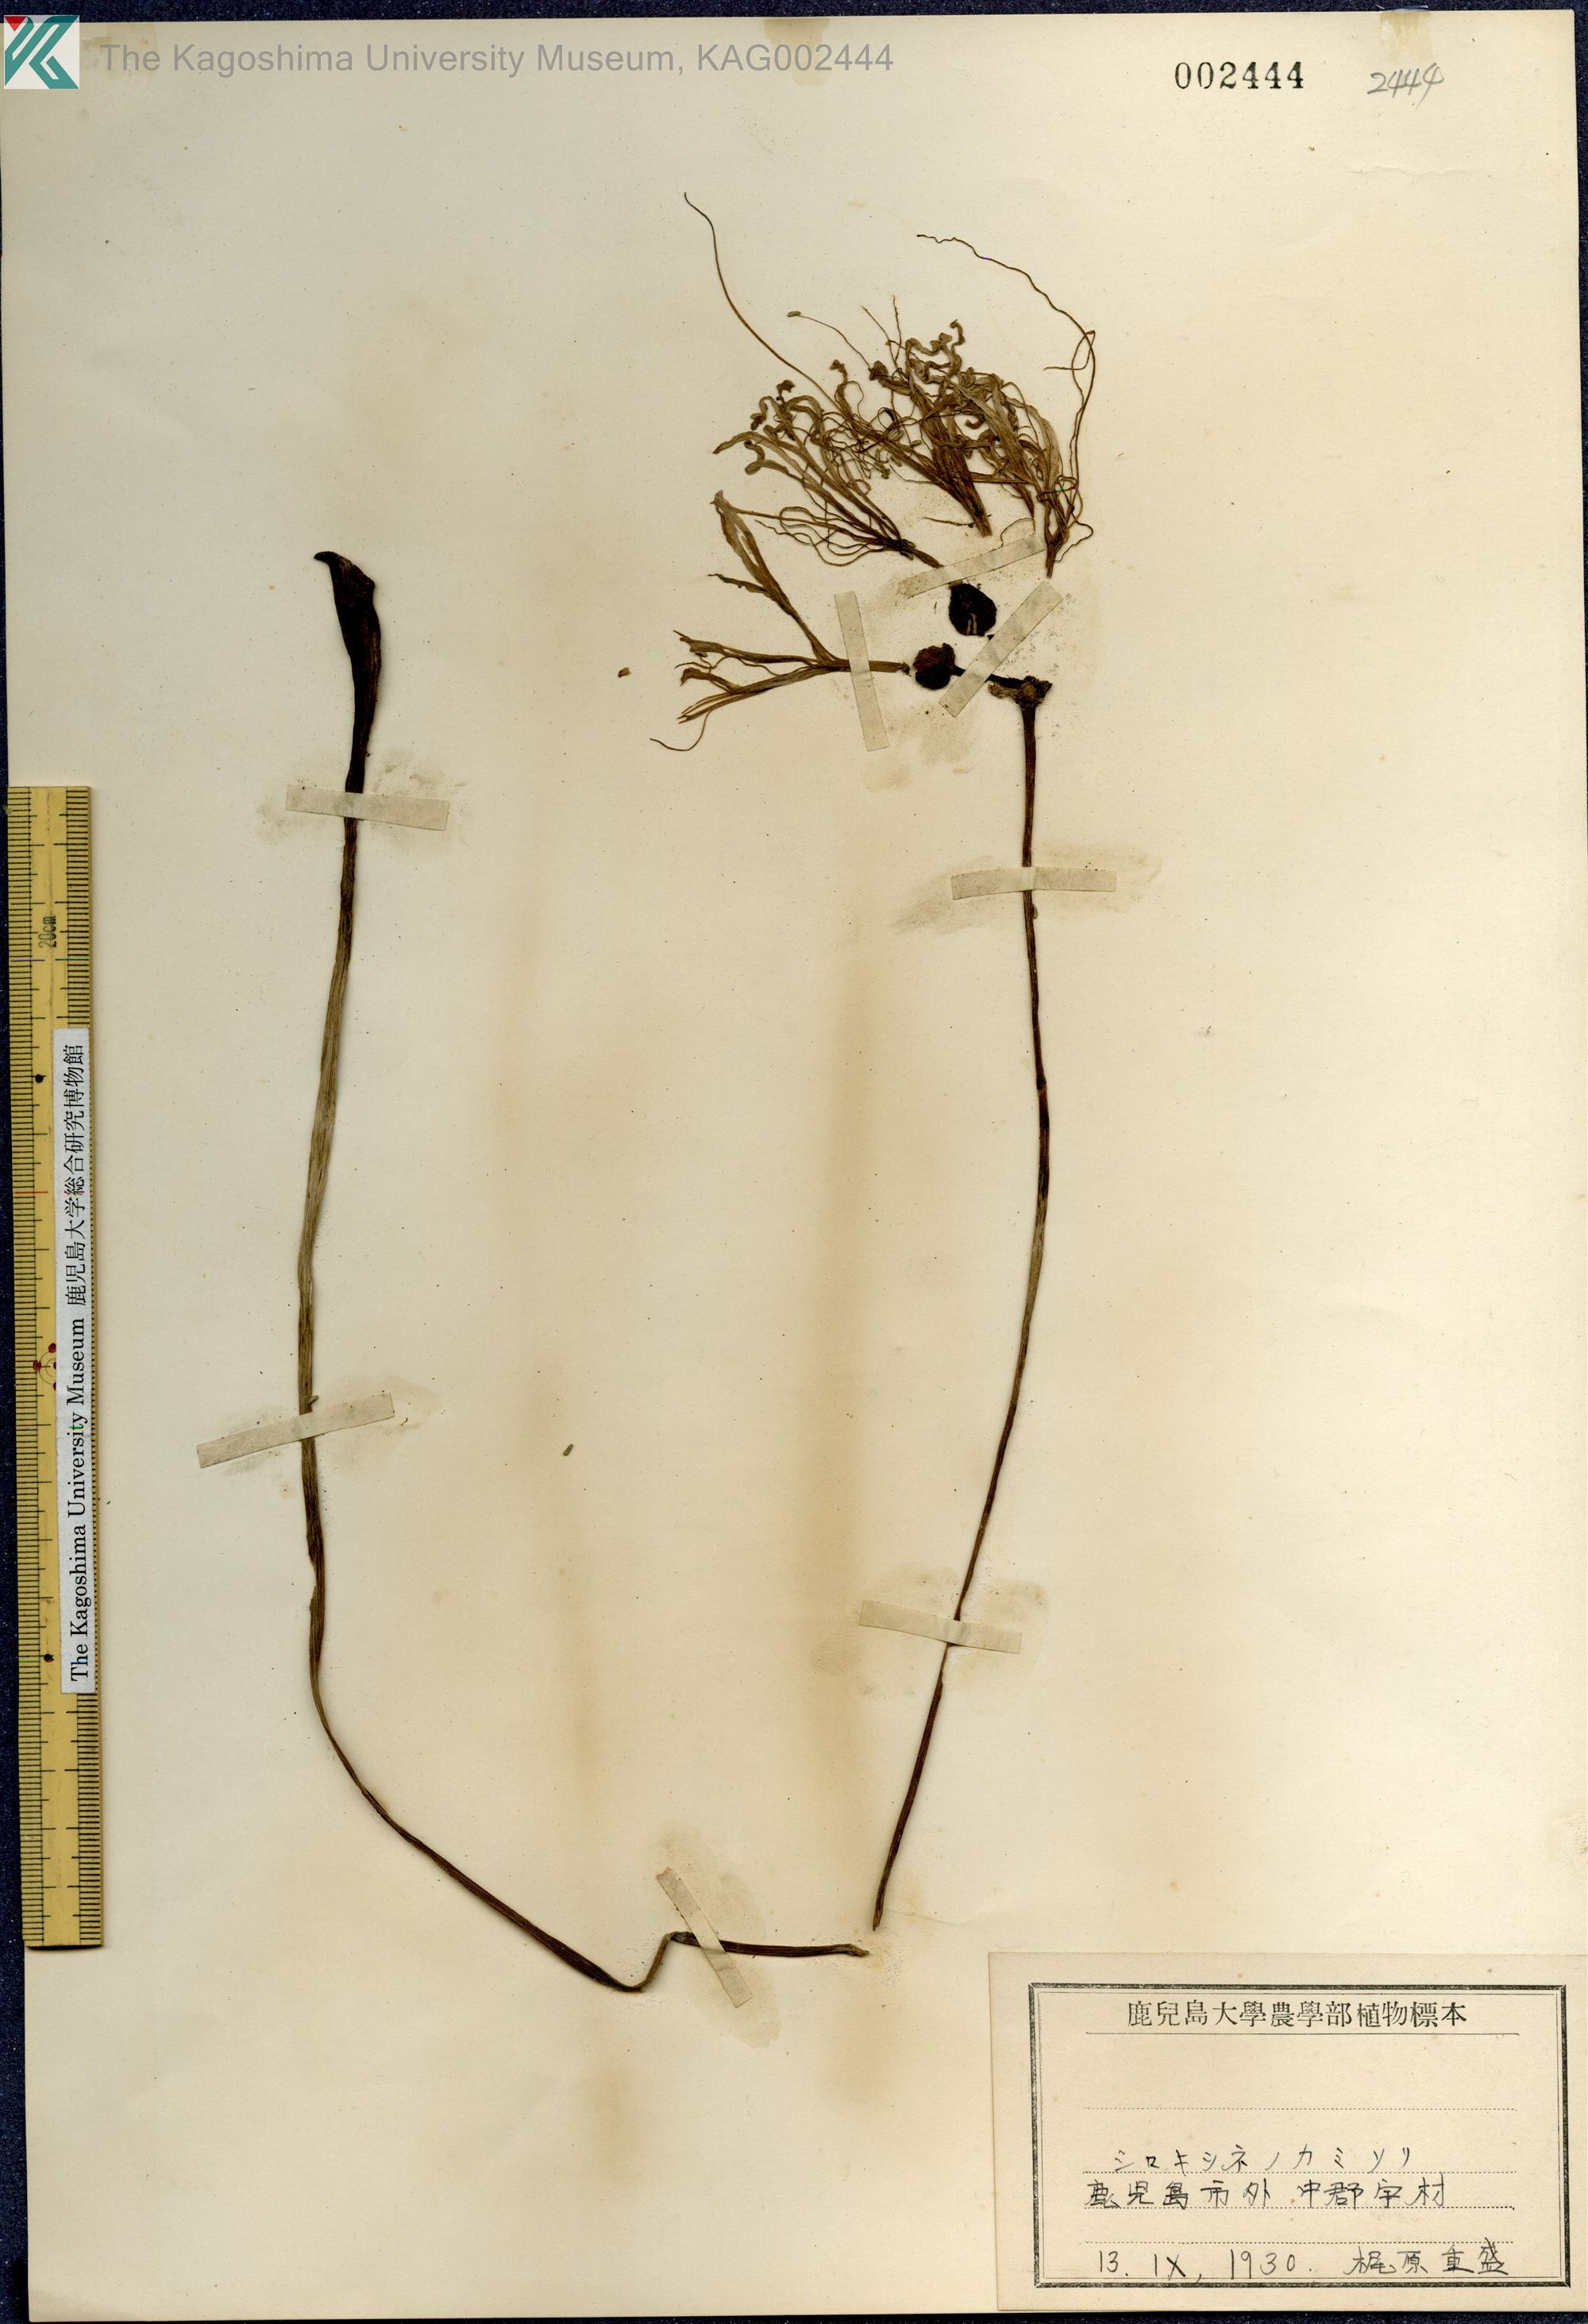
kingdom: Plantae
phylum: Tracheophyta
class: Liliopsida
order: Asparagales
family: Amaryllidaceae
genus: Lycoris
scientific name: Lycoris
